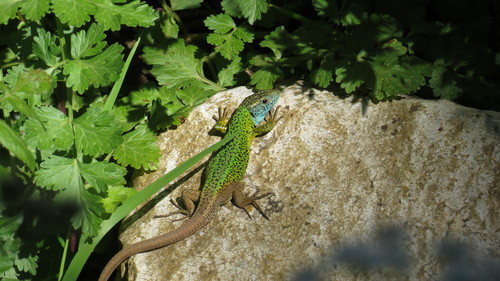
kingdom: Animalia
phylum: Chordata
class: Squamata
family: Lacertidae
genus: Lacerta
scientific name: Lacerta schreiberi
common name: Iberian emerald lizard
